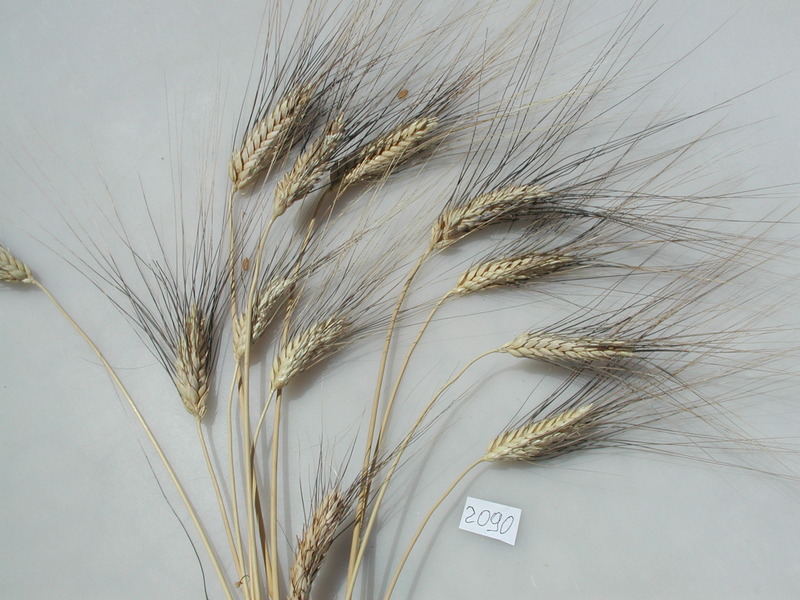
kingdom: Plantae
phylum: Tracheophyta
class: Liliopsida
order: Poales
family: Poaceae
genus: Triticum
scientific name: Triticum turgidum
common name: Wheat
